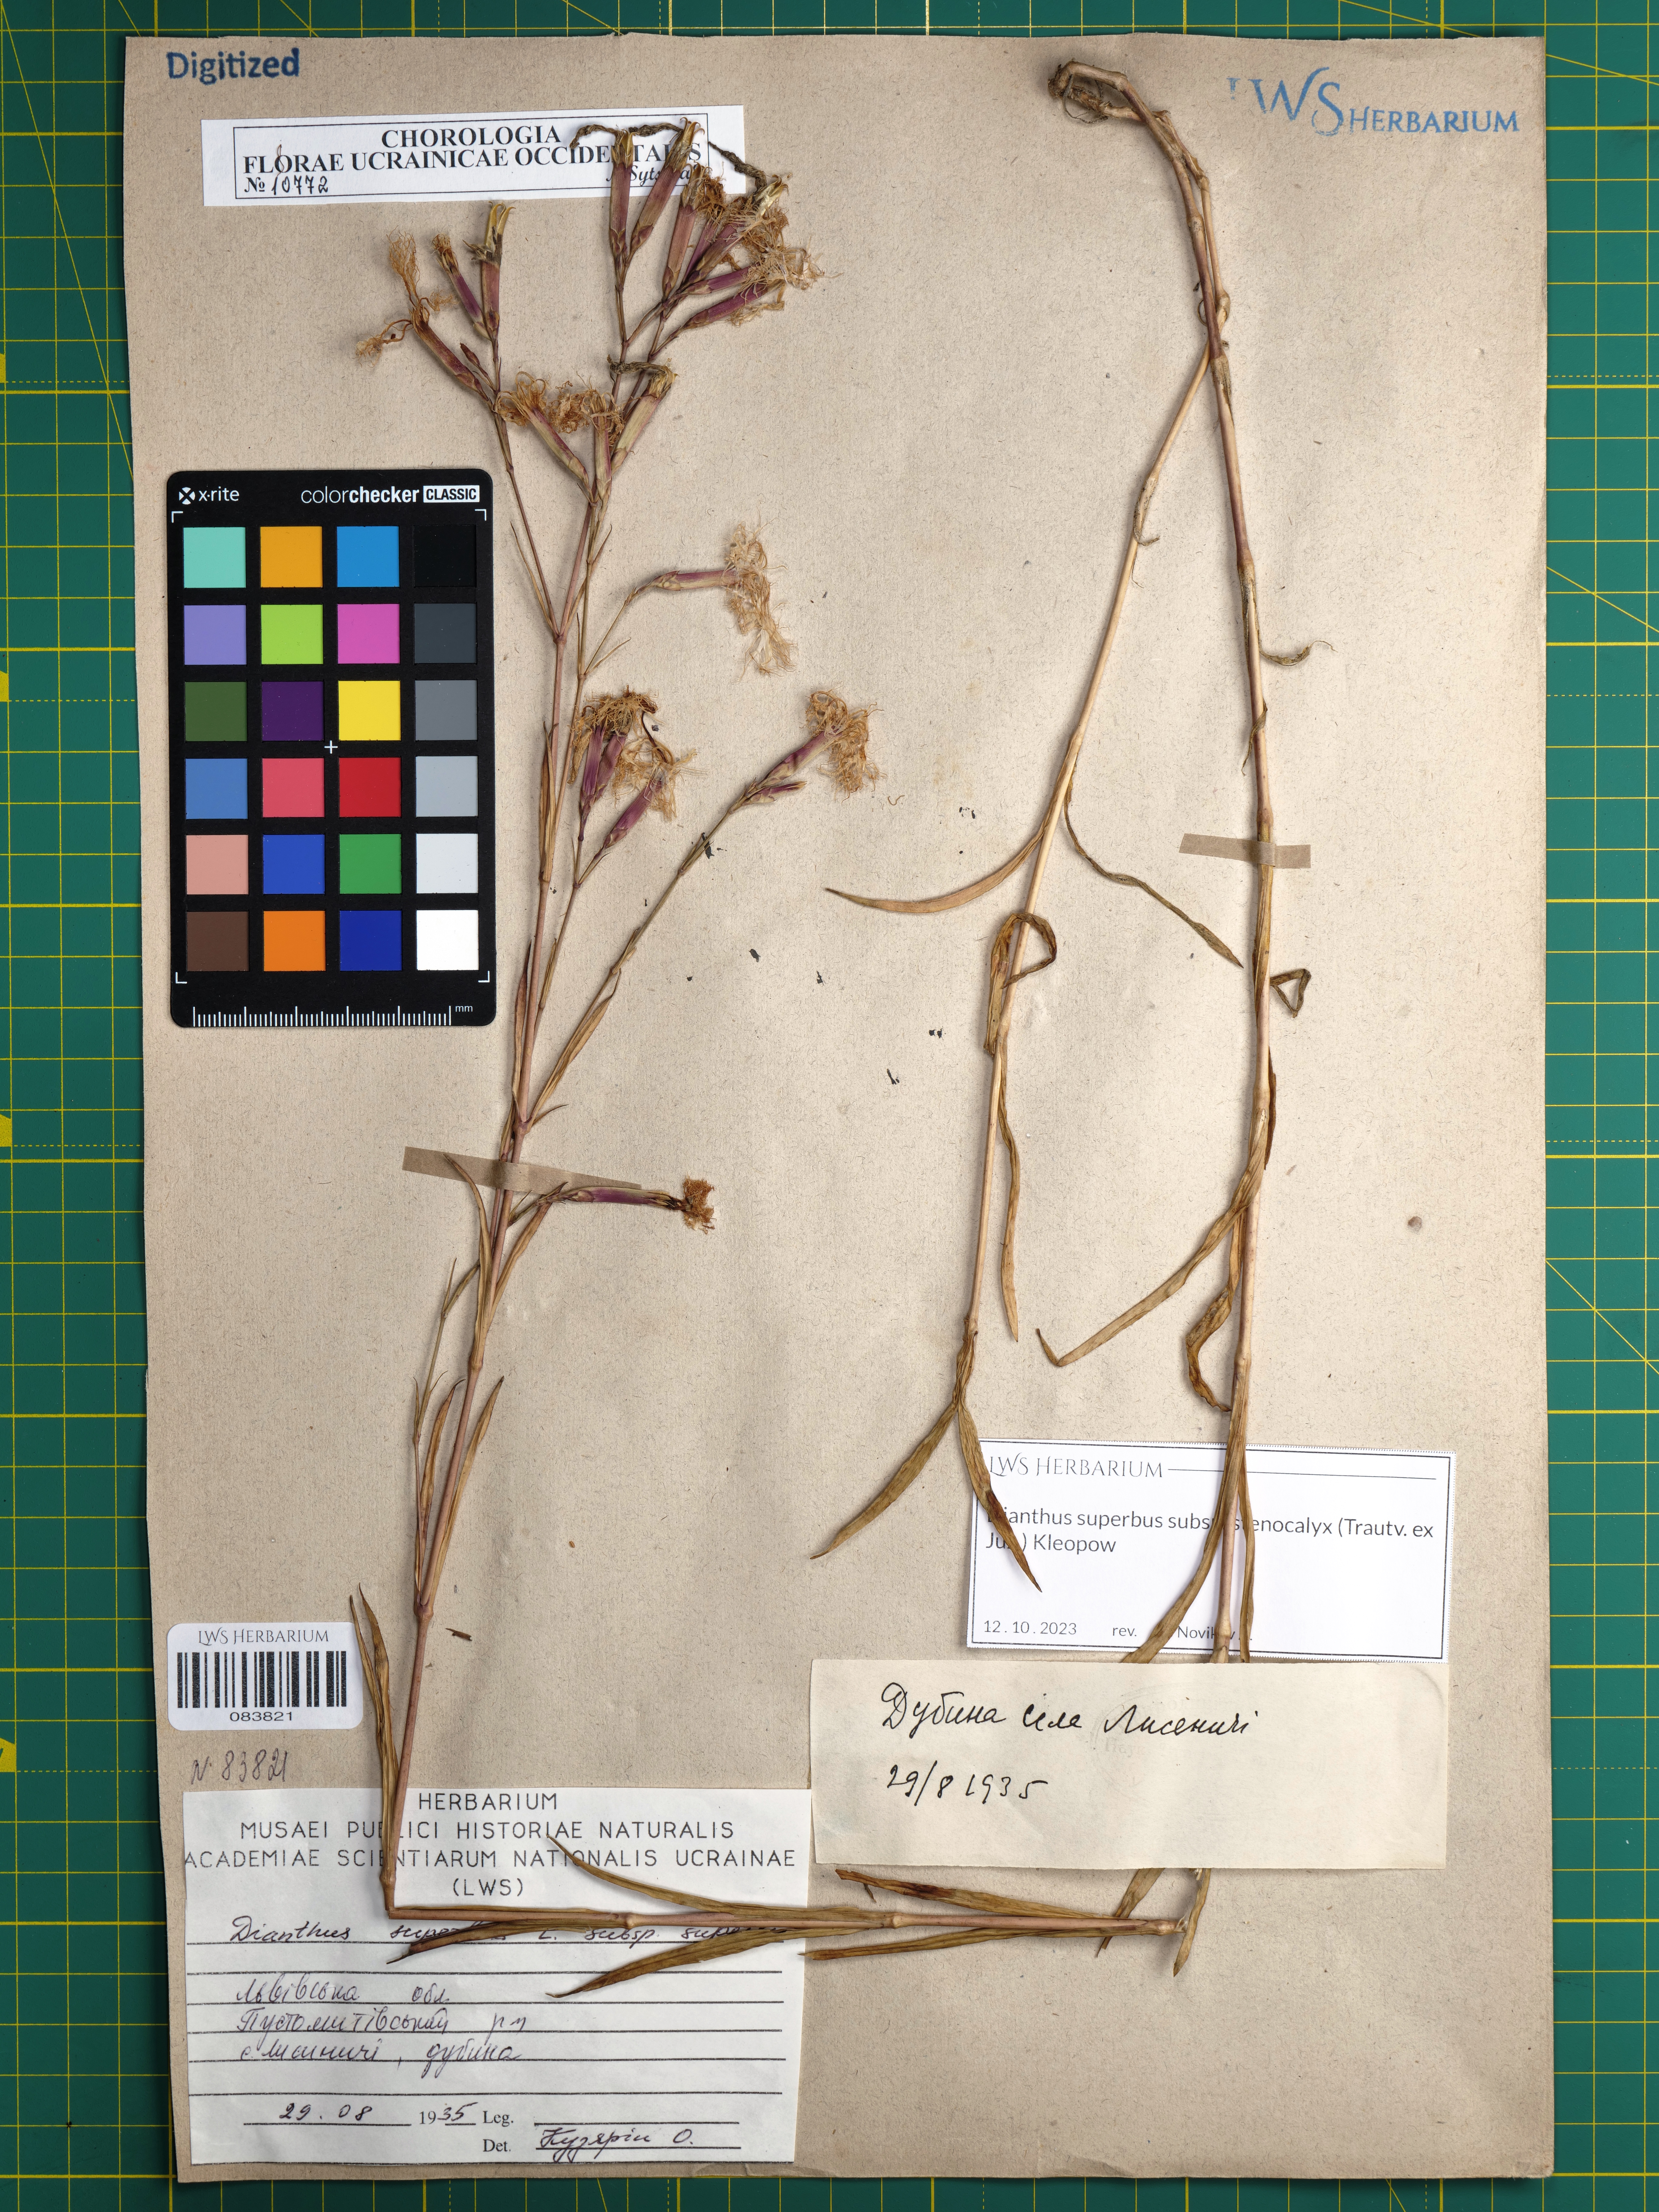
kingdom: Plantae
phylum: Tracheophyta
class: Magnoliopsida
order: Caryophyllales
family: Caryophyllaceae
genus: Dianthus
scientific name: Dianthus superbus
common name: Fringed pink
